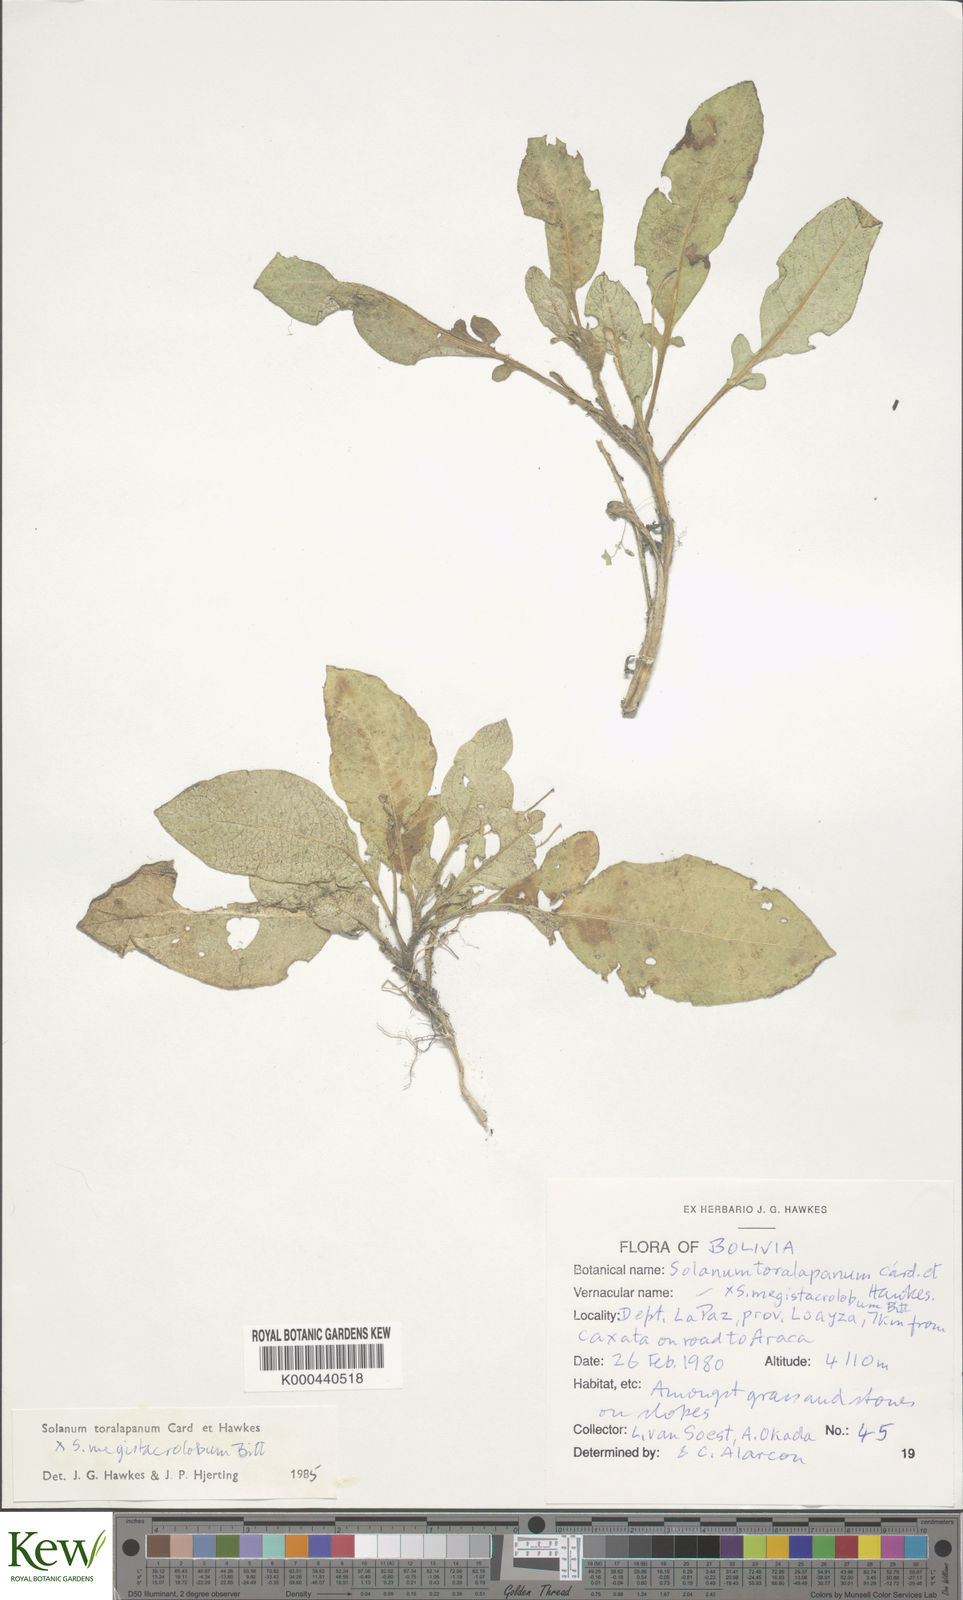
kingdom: Plantae
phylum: Tracheophyta
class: Magnoliopsida
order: Solanales
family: Solanaceae
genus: Solanum
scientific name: Solanum boliviense
